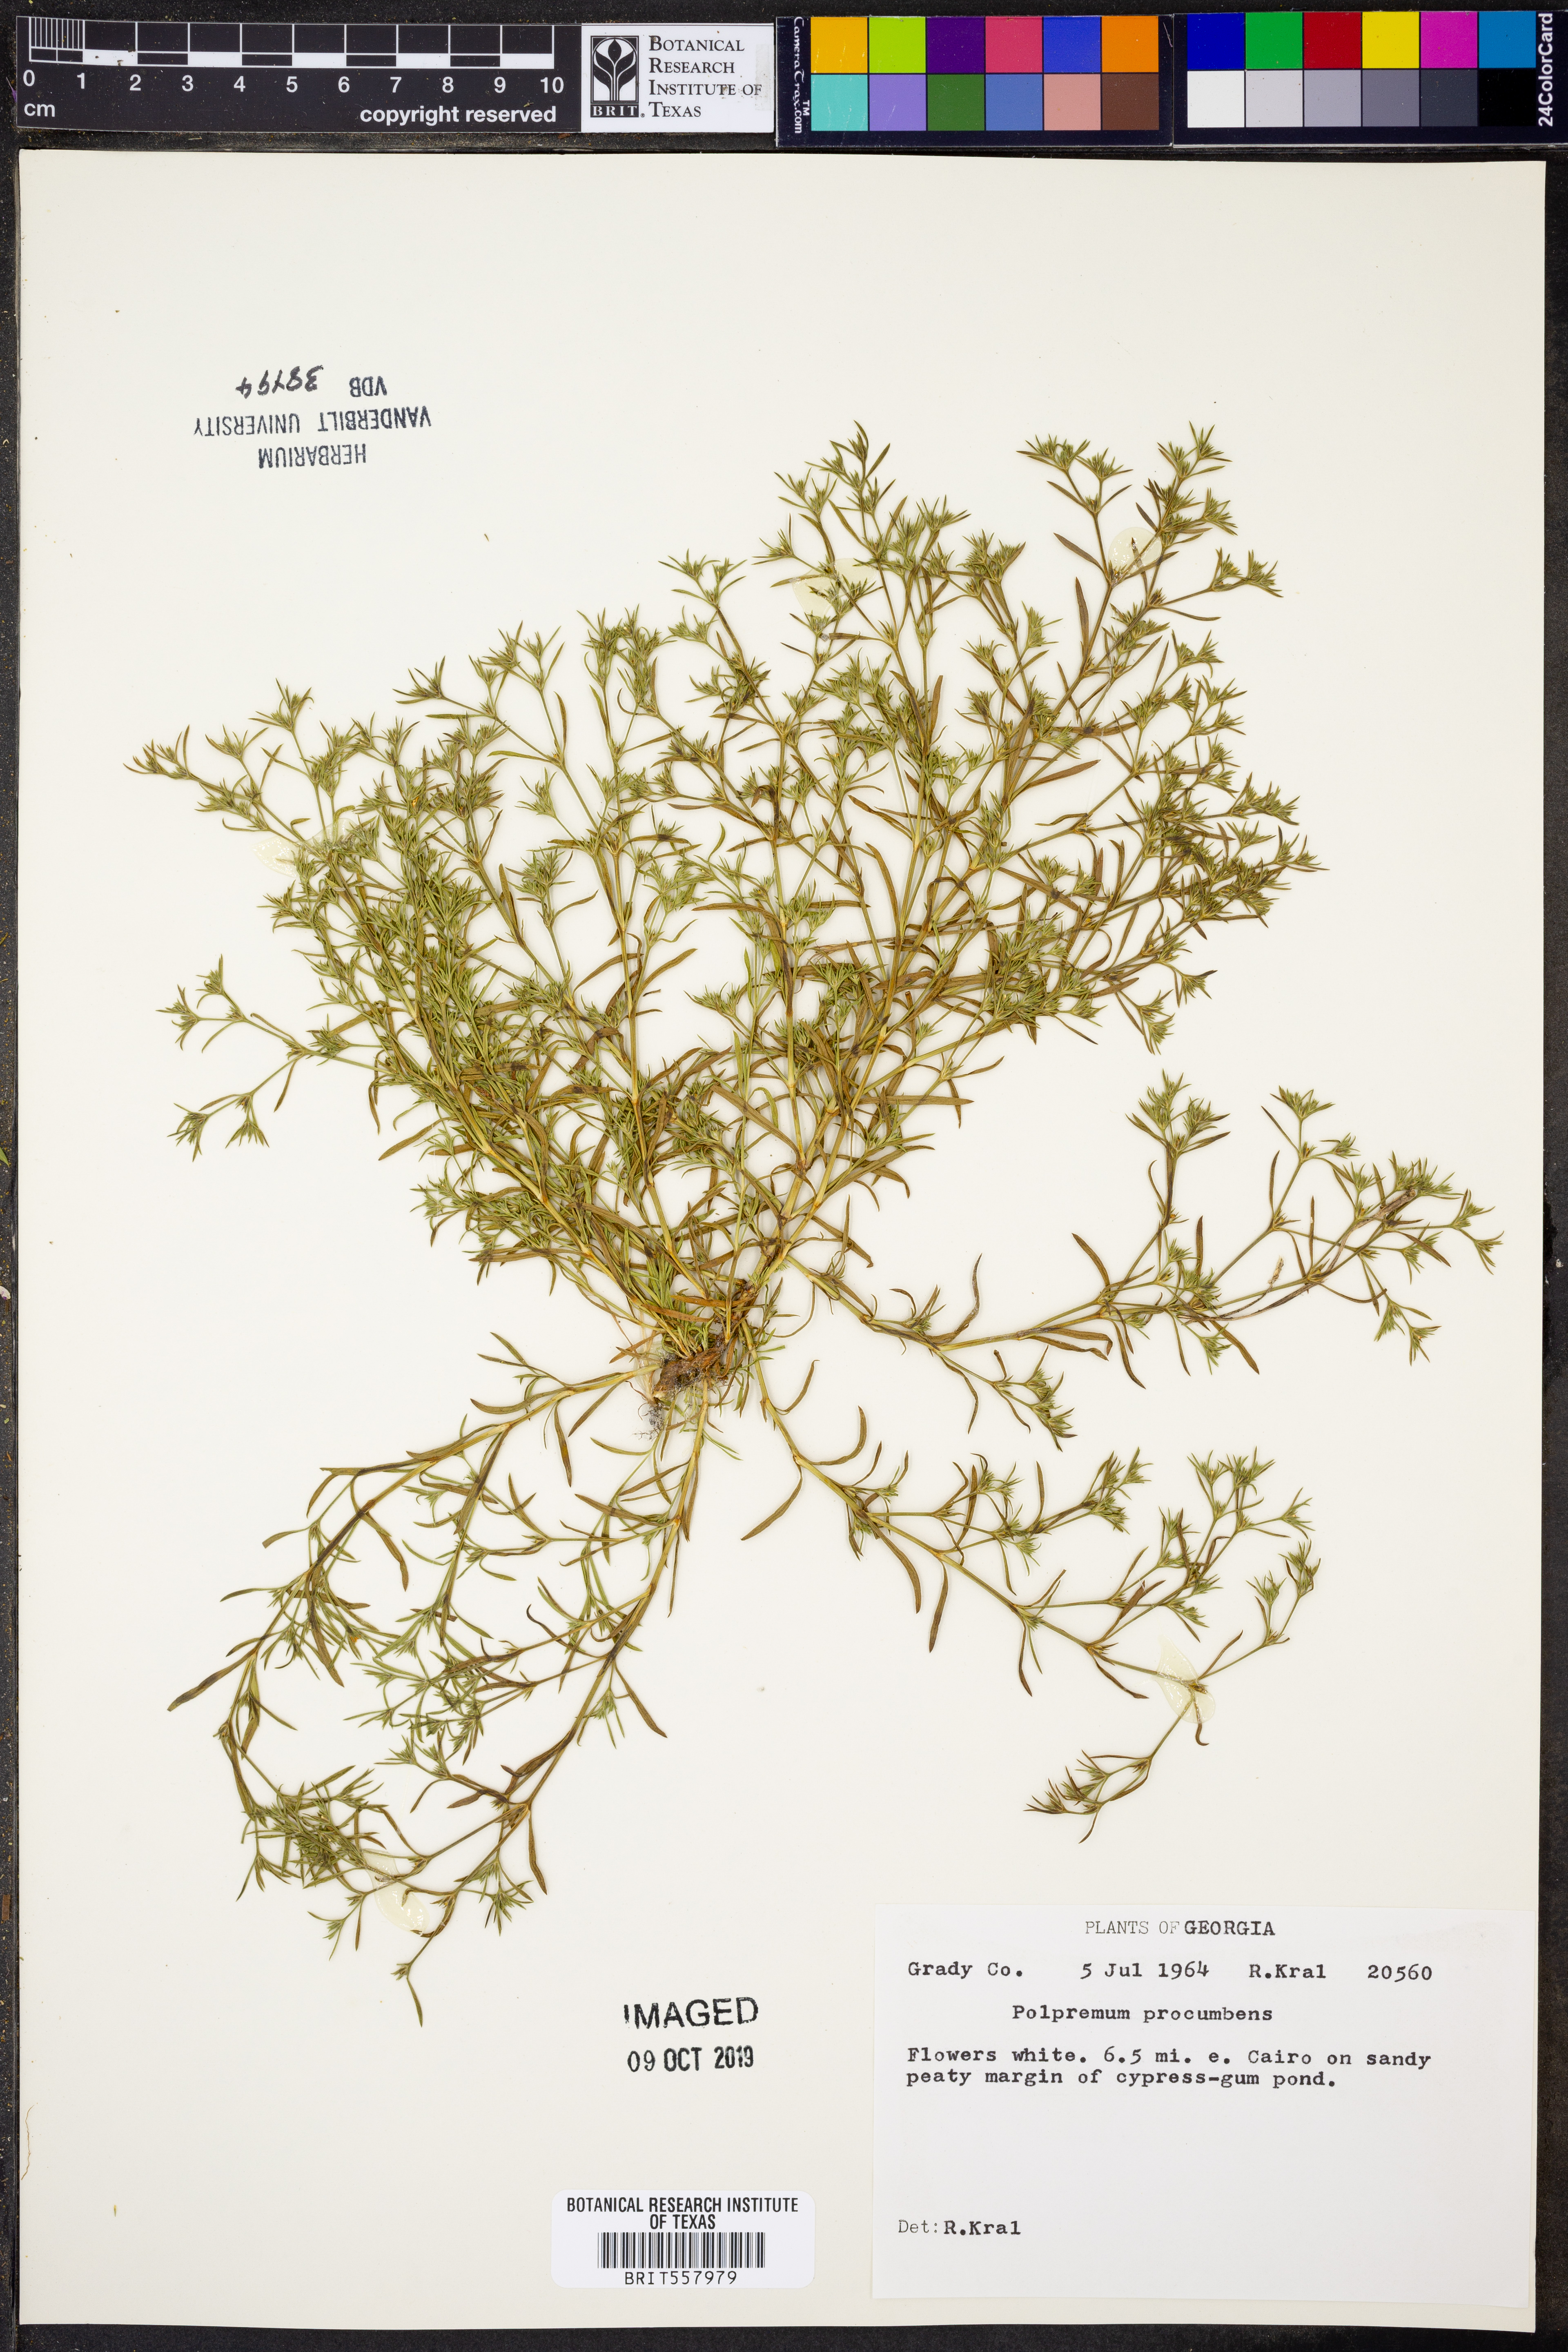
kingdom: Plantae
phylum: Tracheophyta
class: Magnoliopsida
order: Lamiales
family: Tetrachondraceae
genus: Polypremum
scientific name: Polypremum procumbens
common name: Juniper-leaf
